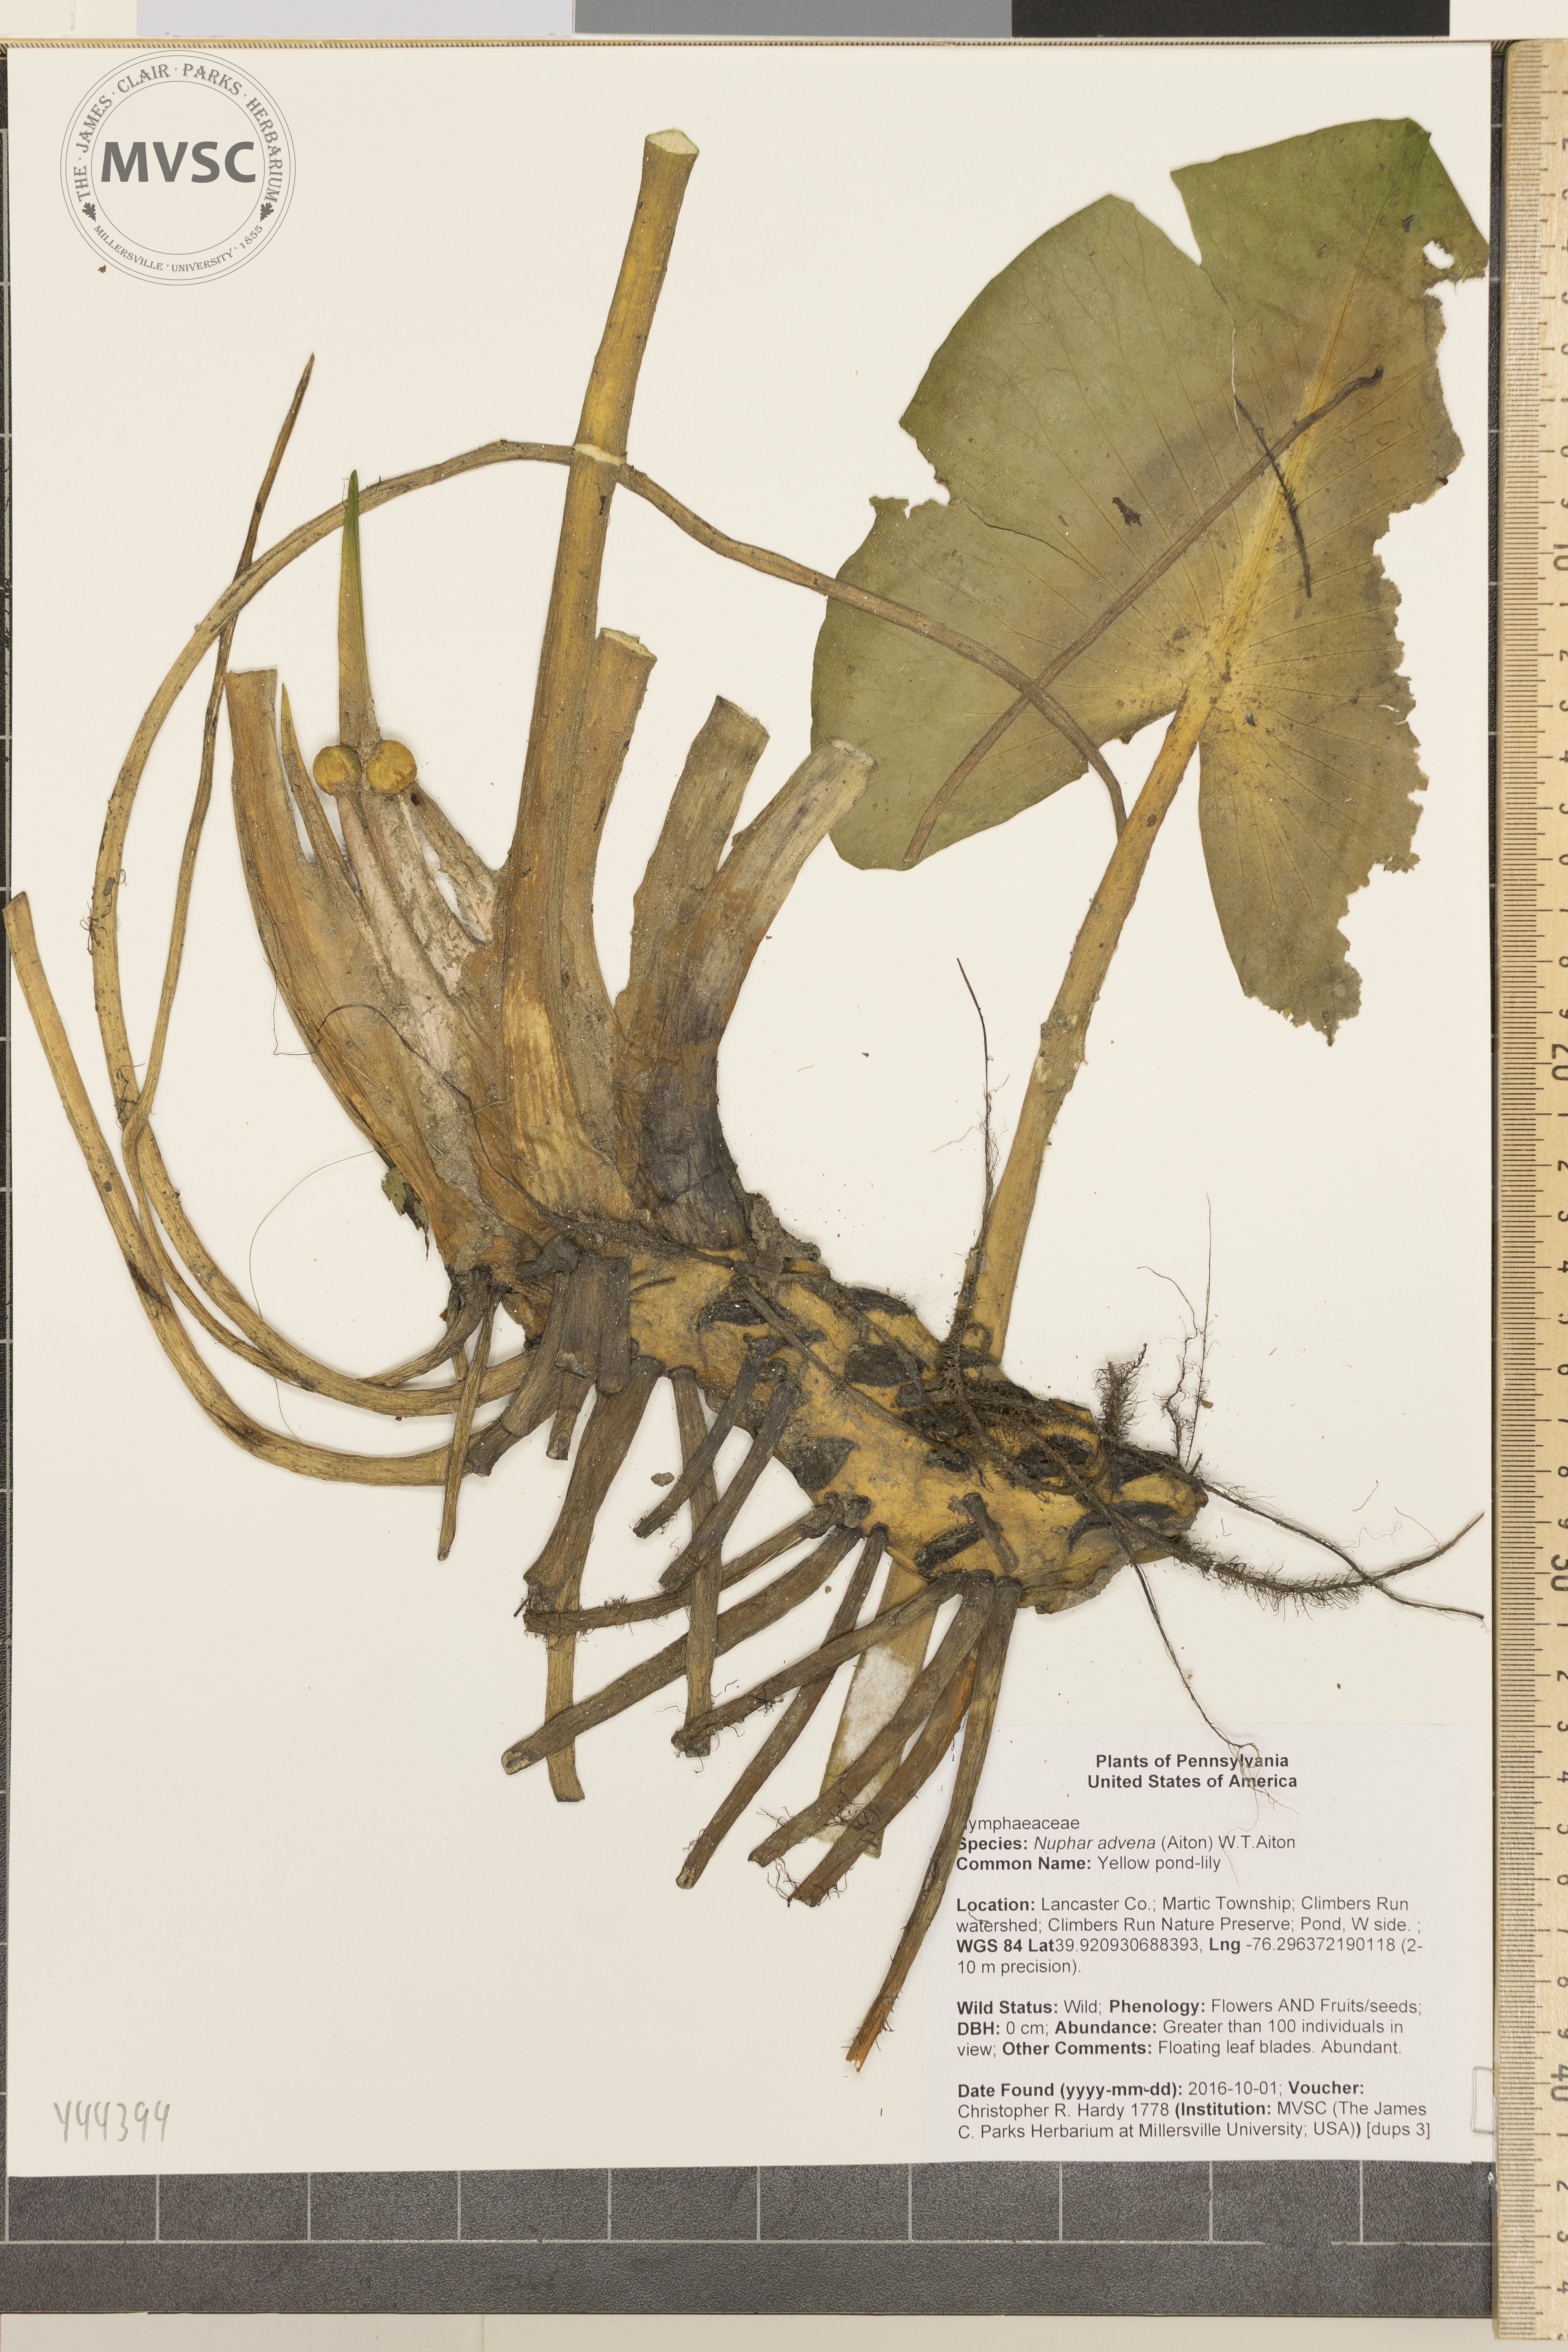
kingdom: Plantae
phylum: Tracheophyta
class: Magnoliopsida
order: Nymphaeales
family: Nymphaeaceae
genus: Nuphar
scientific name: Nuphar advena
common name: yellow pond-lily
